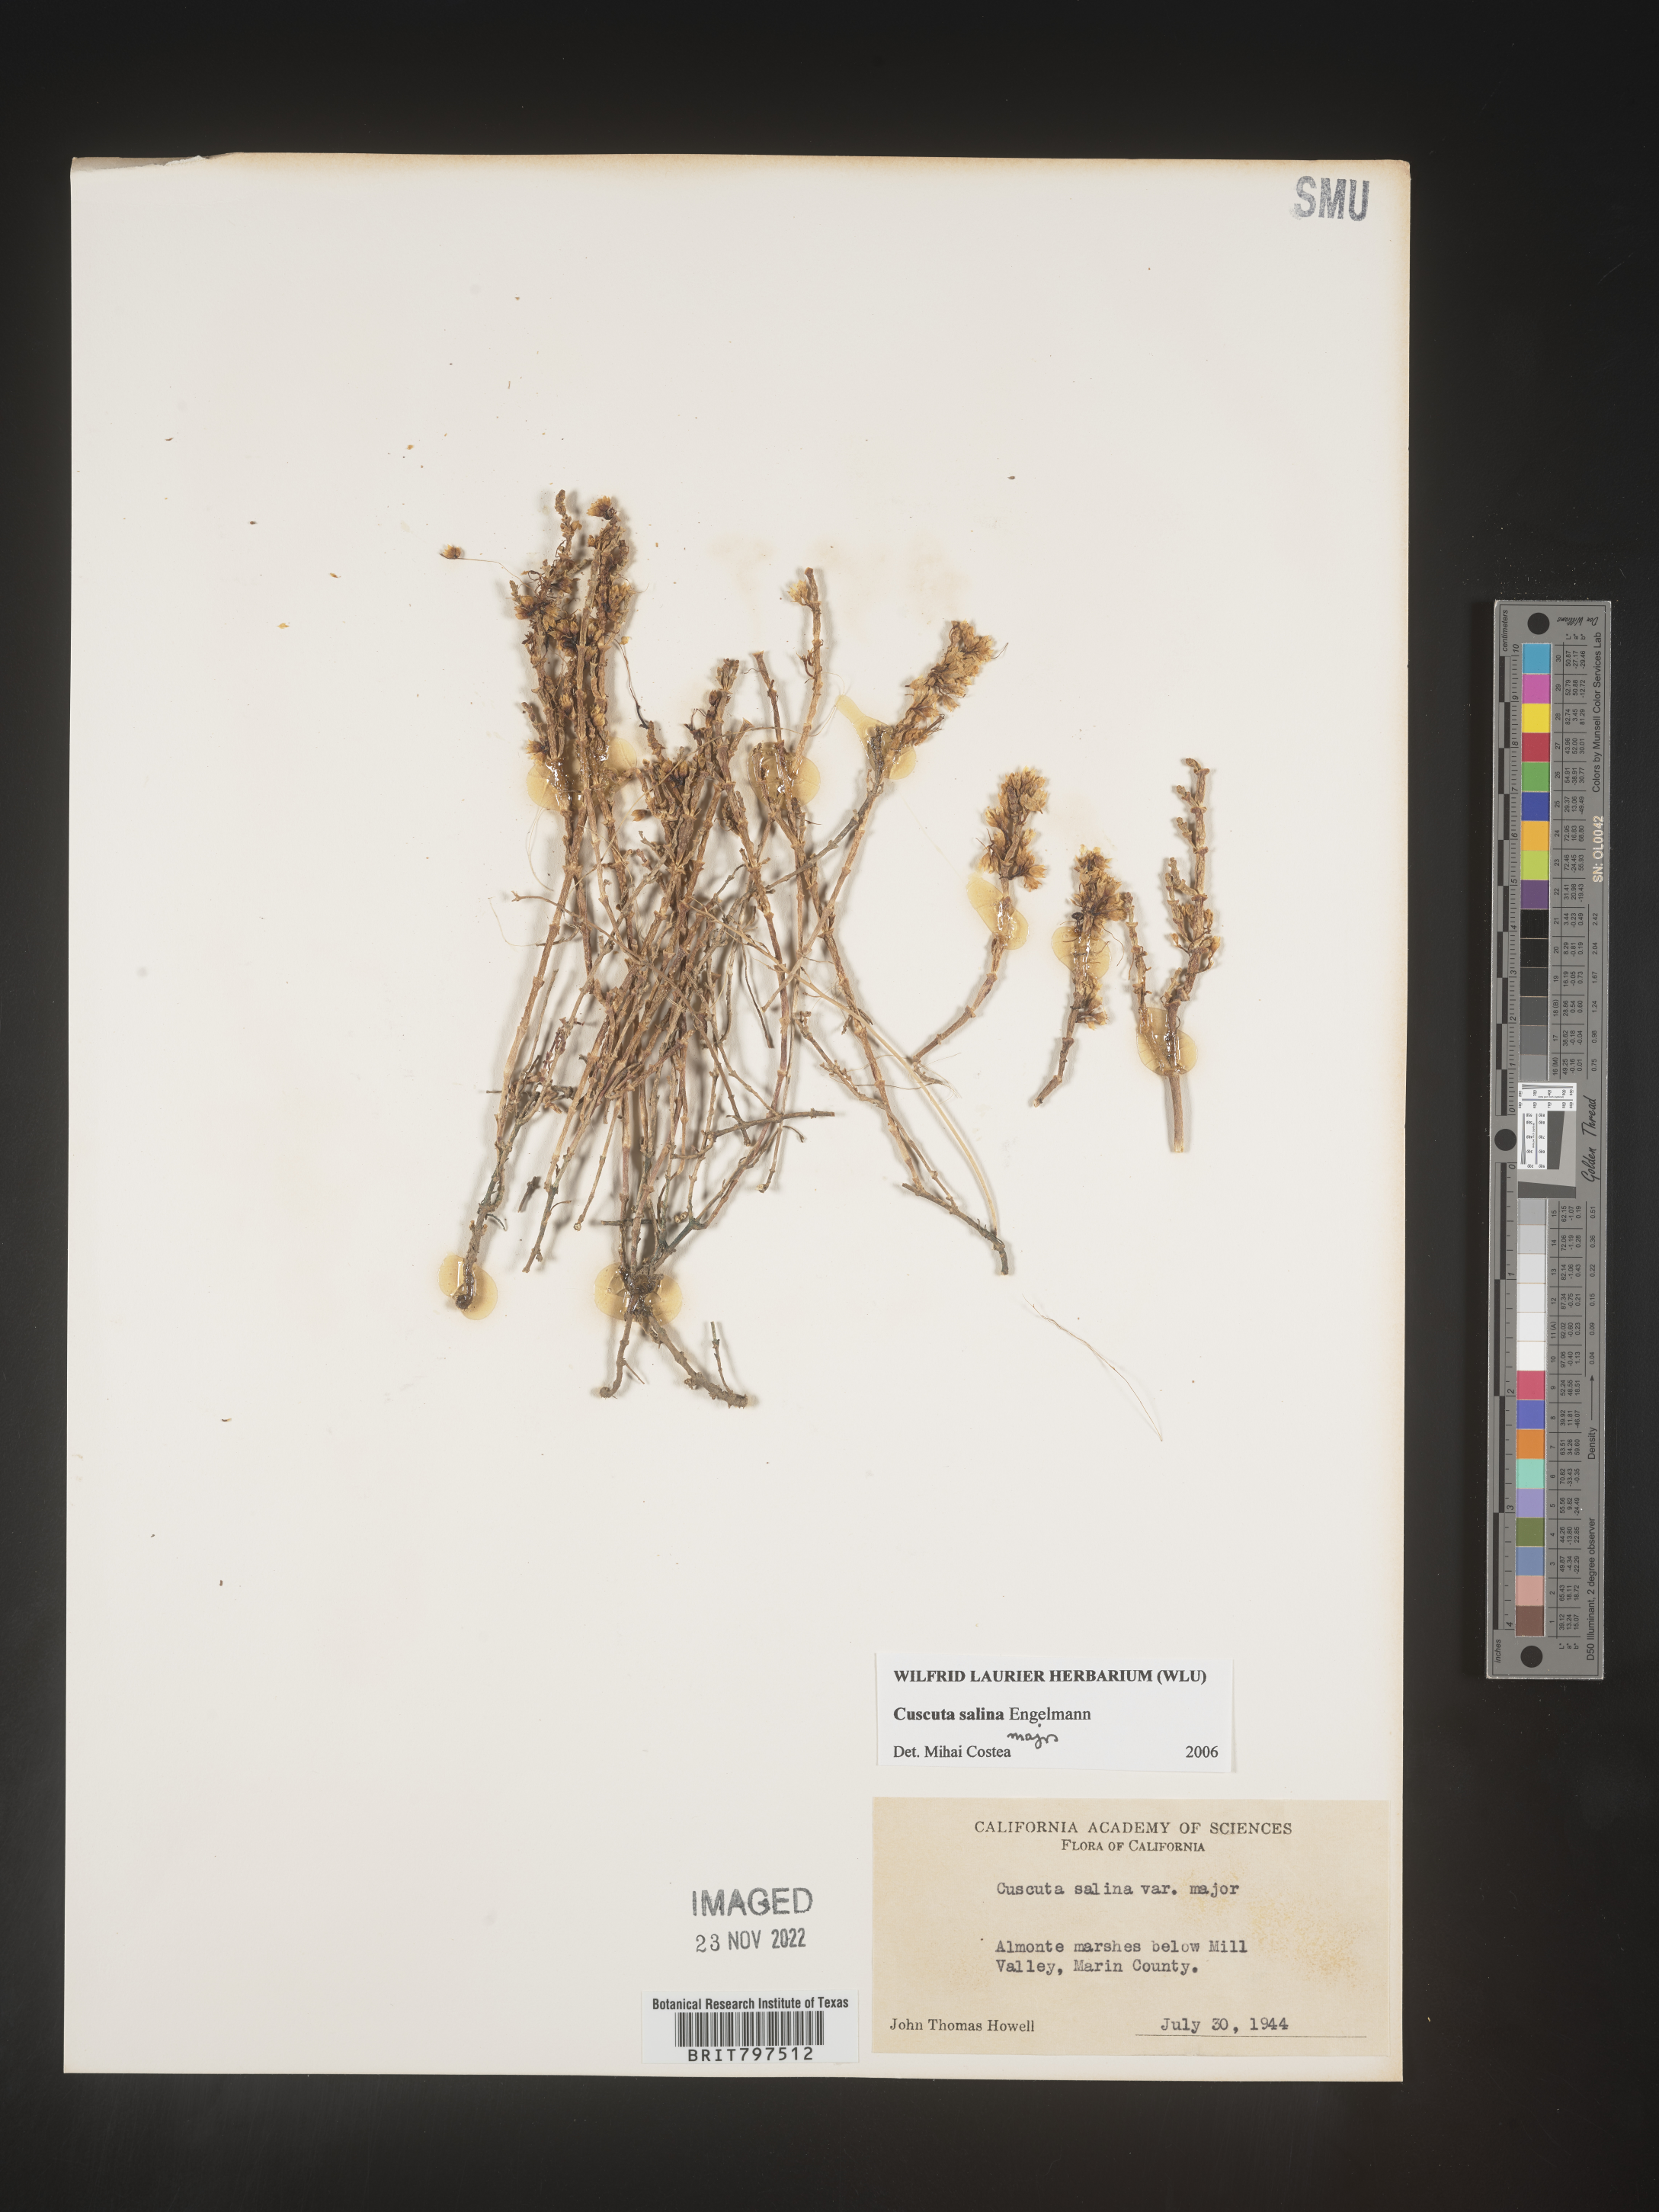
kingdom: Plantae
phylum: Tracheophyta
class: Magnoliopsida
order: Solanales
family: Convolvulaceae
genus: Cuscuta
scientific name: Cuscuta salina
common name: Goldenthread
